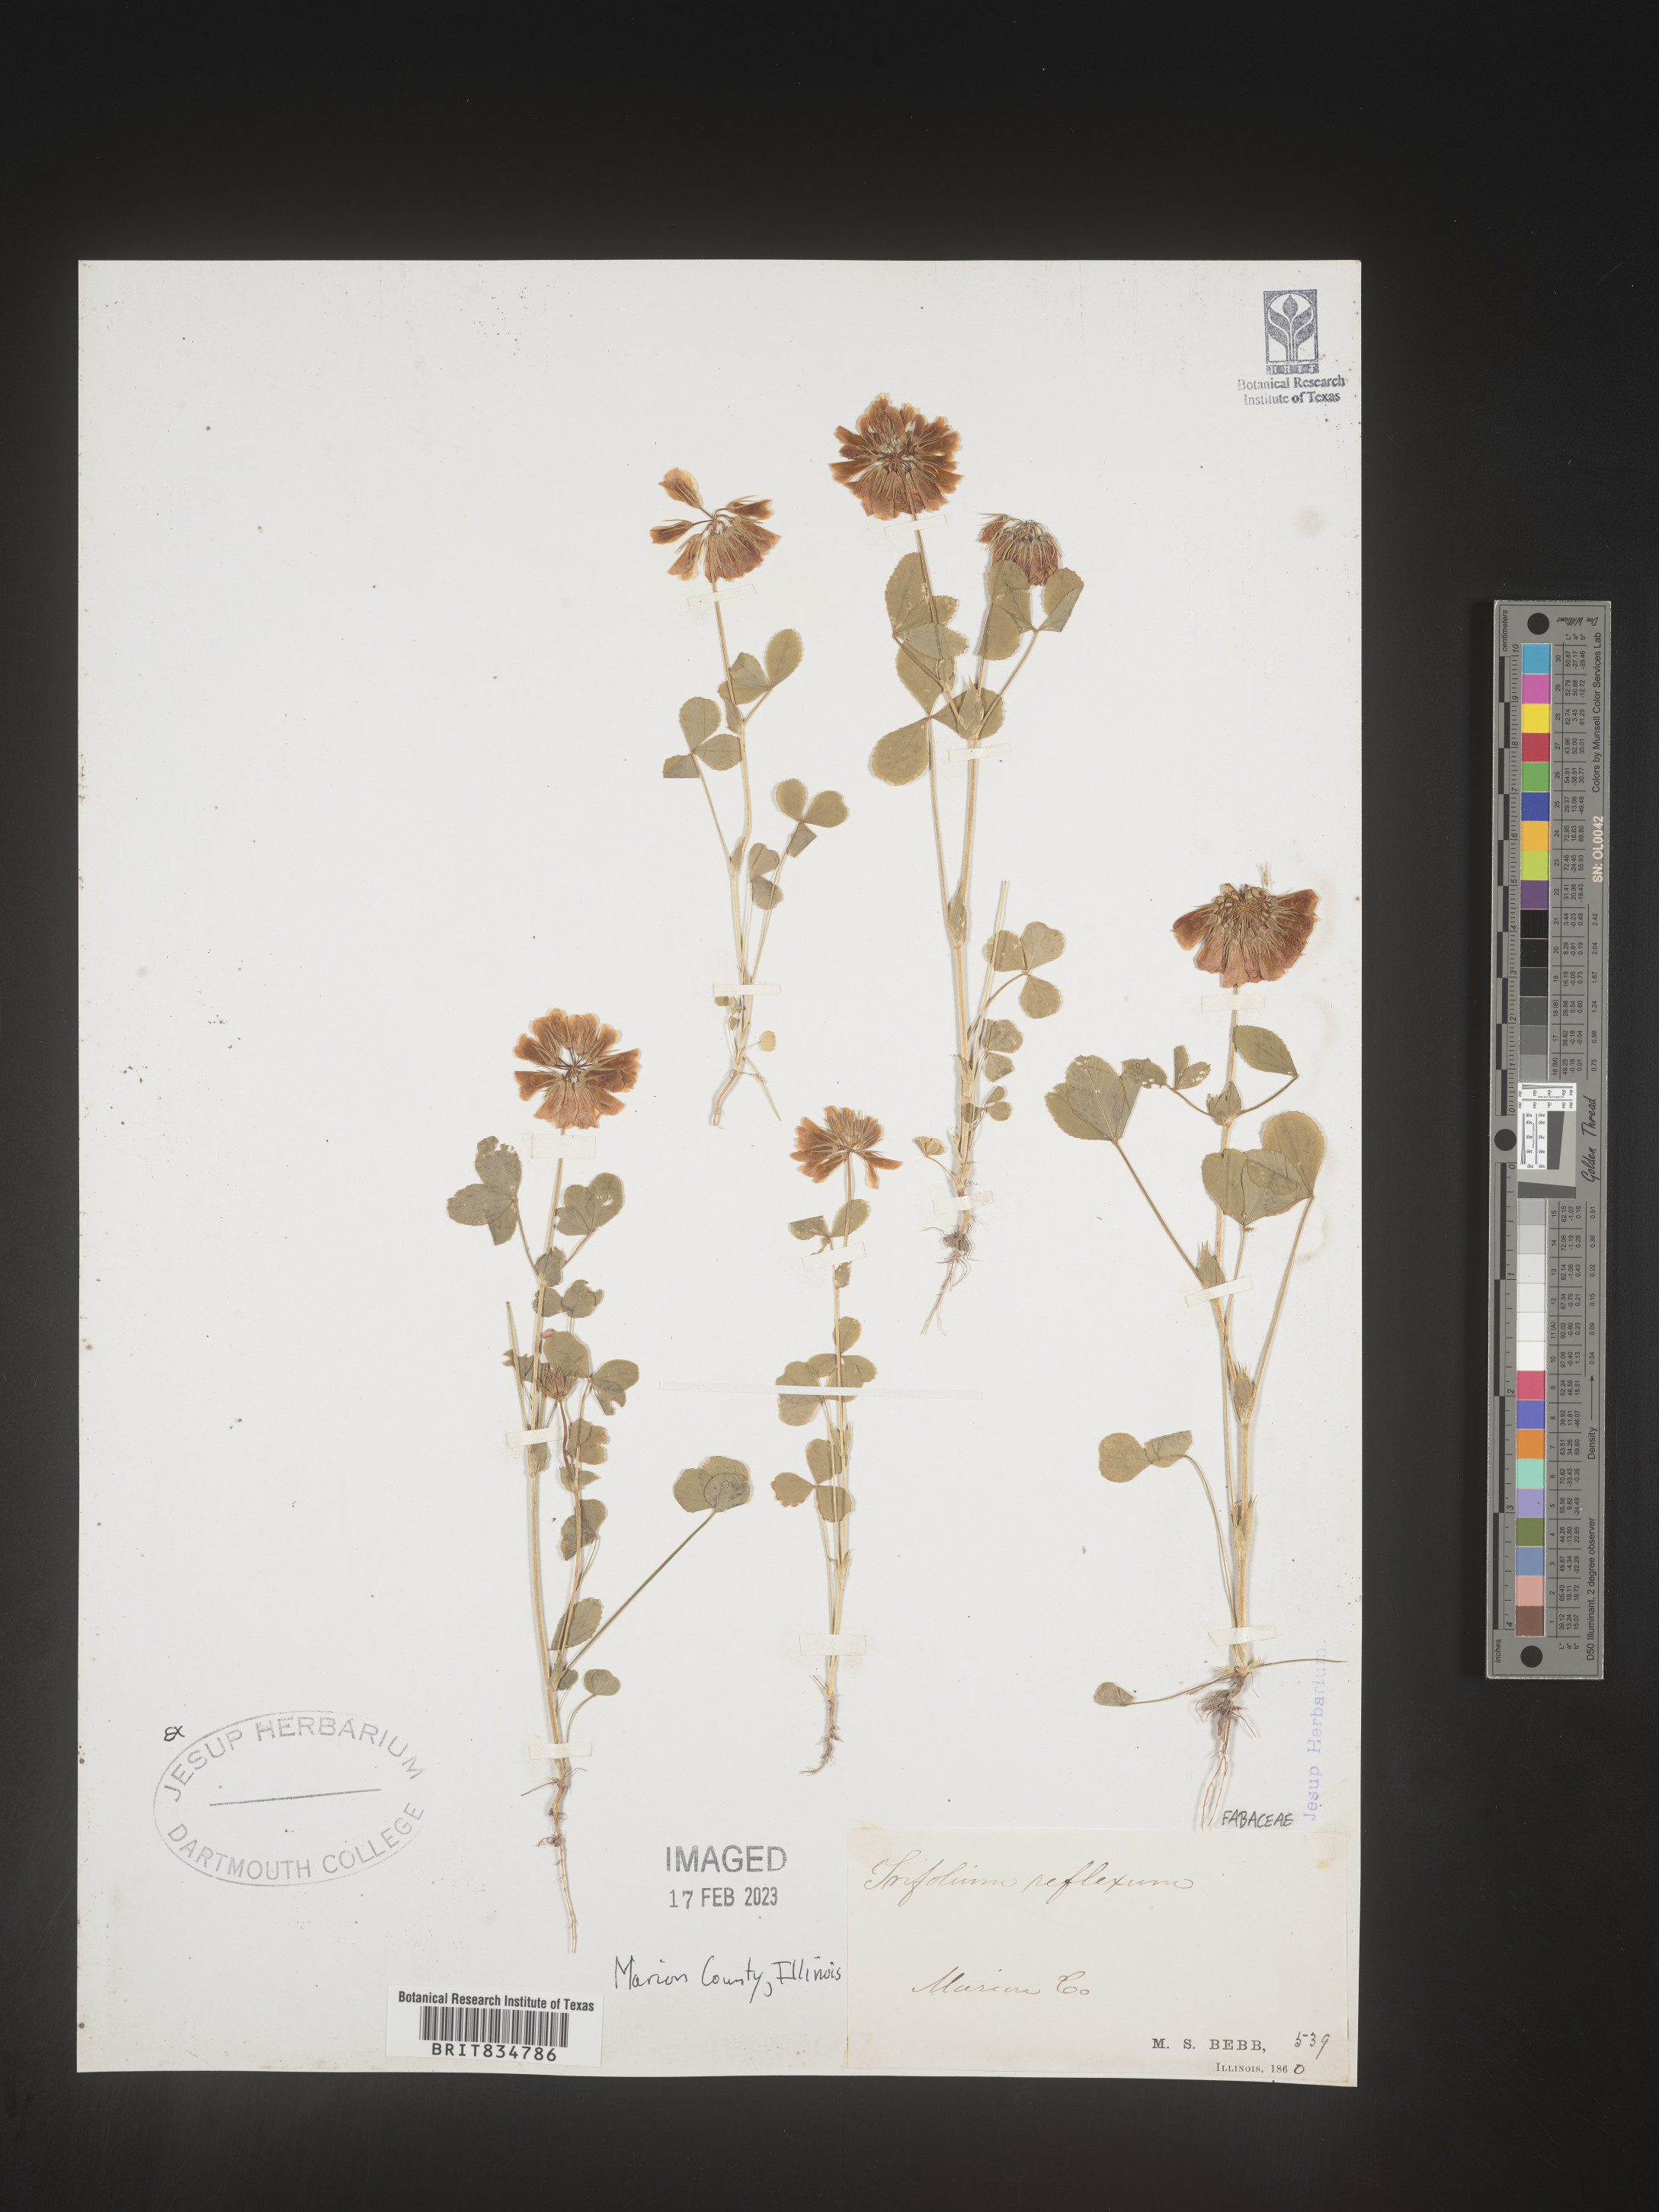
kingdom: Plantae
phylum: Tracheophyta
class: Magnoliopsida
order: Fabales
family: Fabaceae
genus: Trifolium
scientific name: Trifolium reflexum
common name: Buffalo clover
